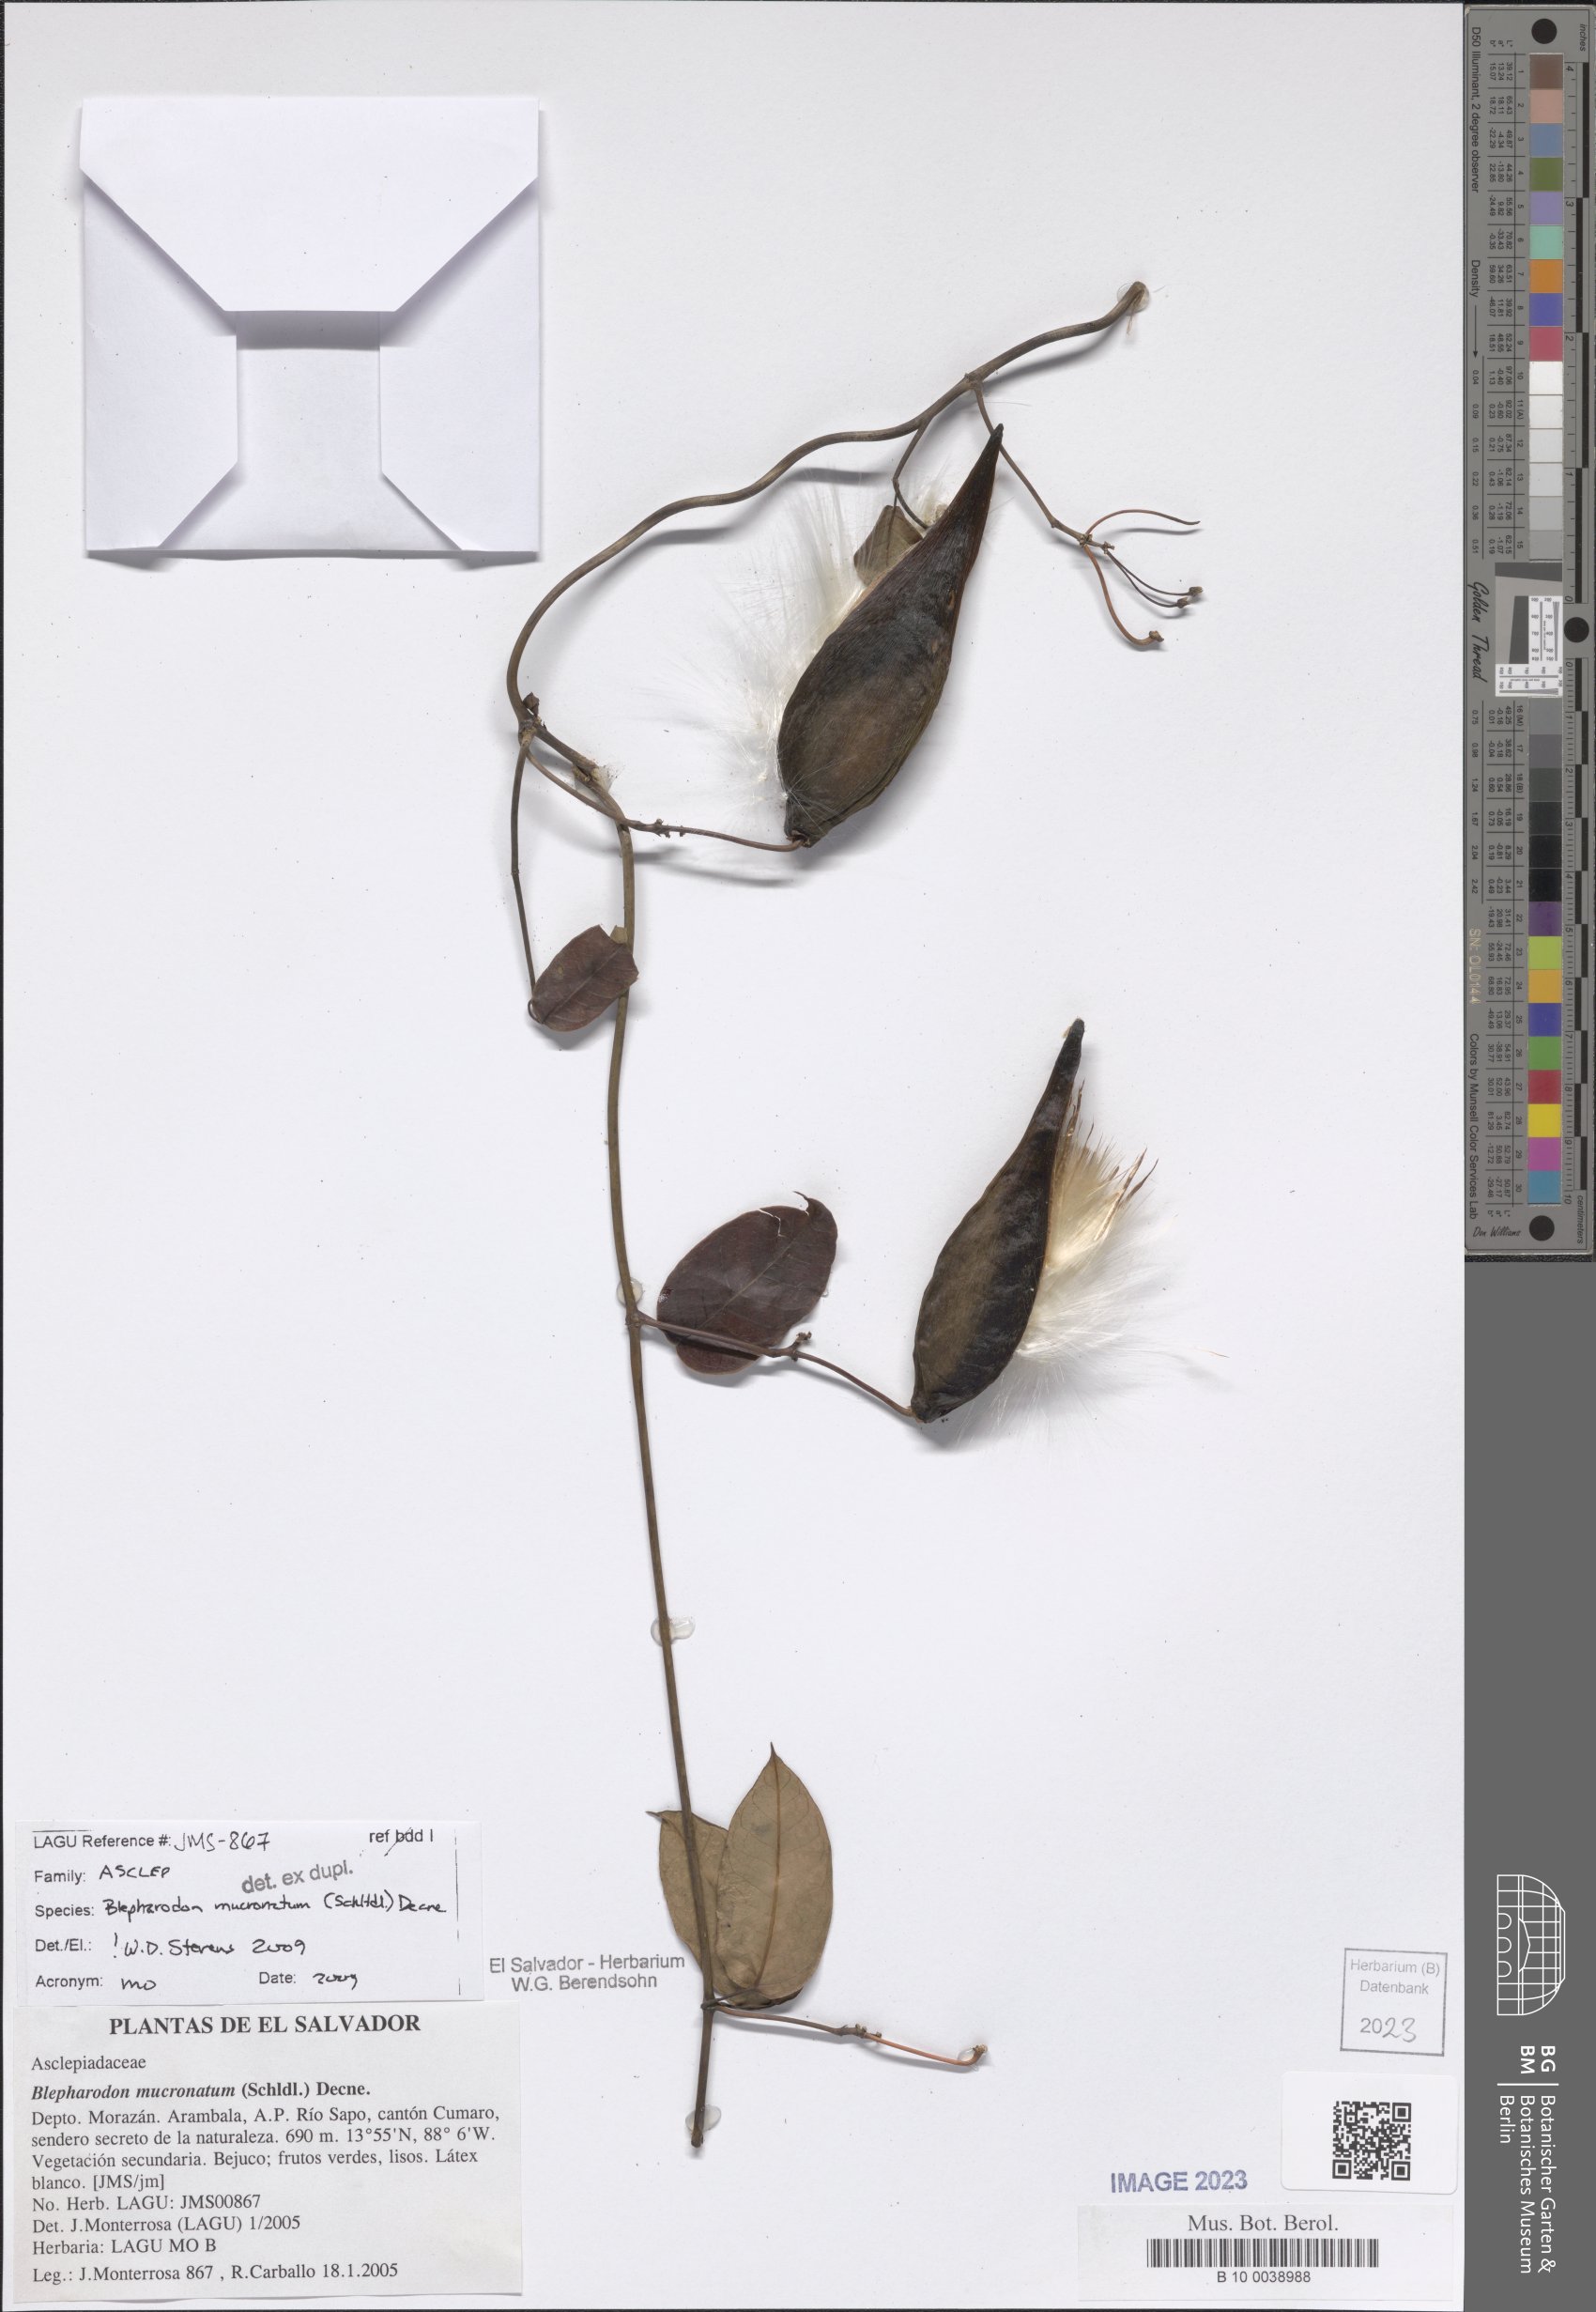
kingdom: Plantae
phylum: Tracheophyta
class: Magnoliopsida
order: Gentianales
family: Apocynaceae
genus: Vailia
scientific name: Vailia anomala
